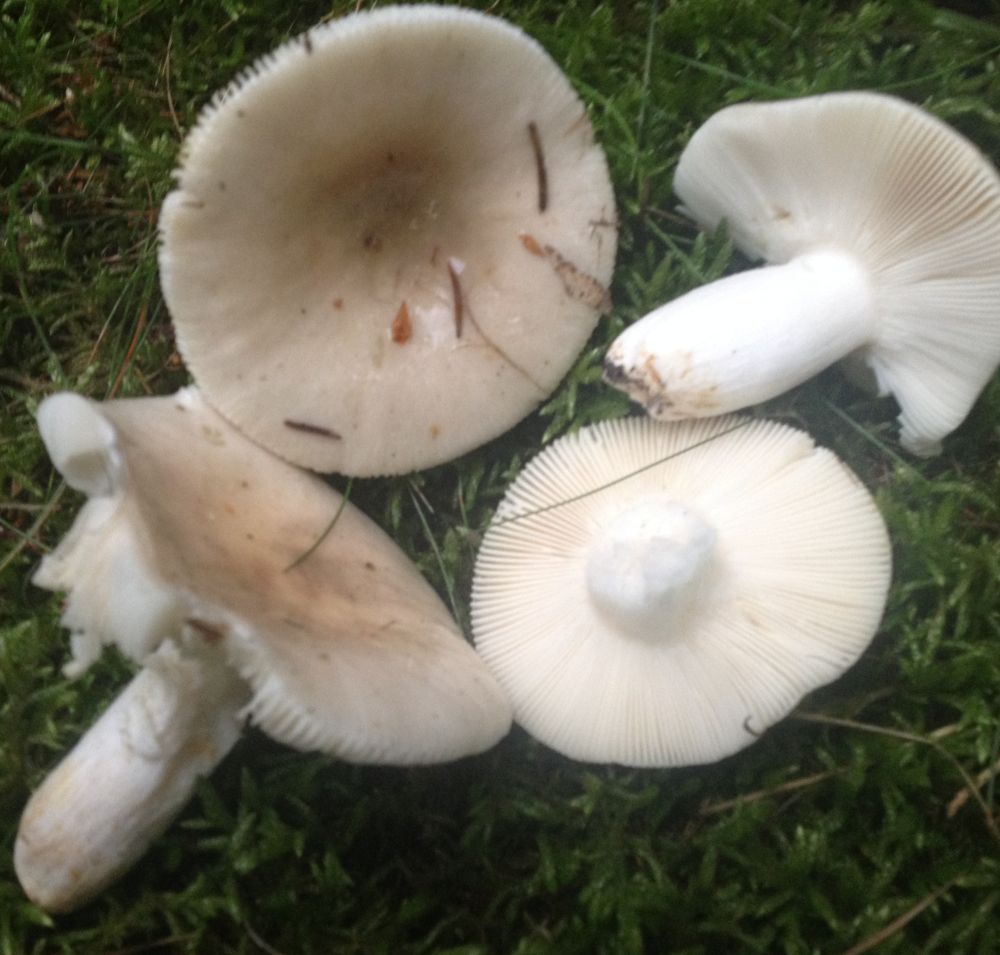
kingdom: Fungi
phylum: Basidiomycota
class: Agaricomycetes
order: Russulales
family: Russulaceae
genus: Russula
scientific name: Russula
